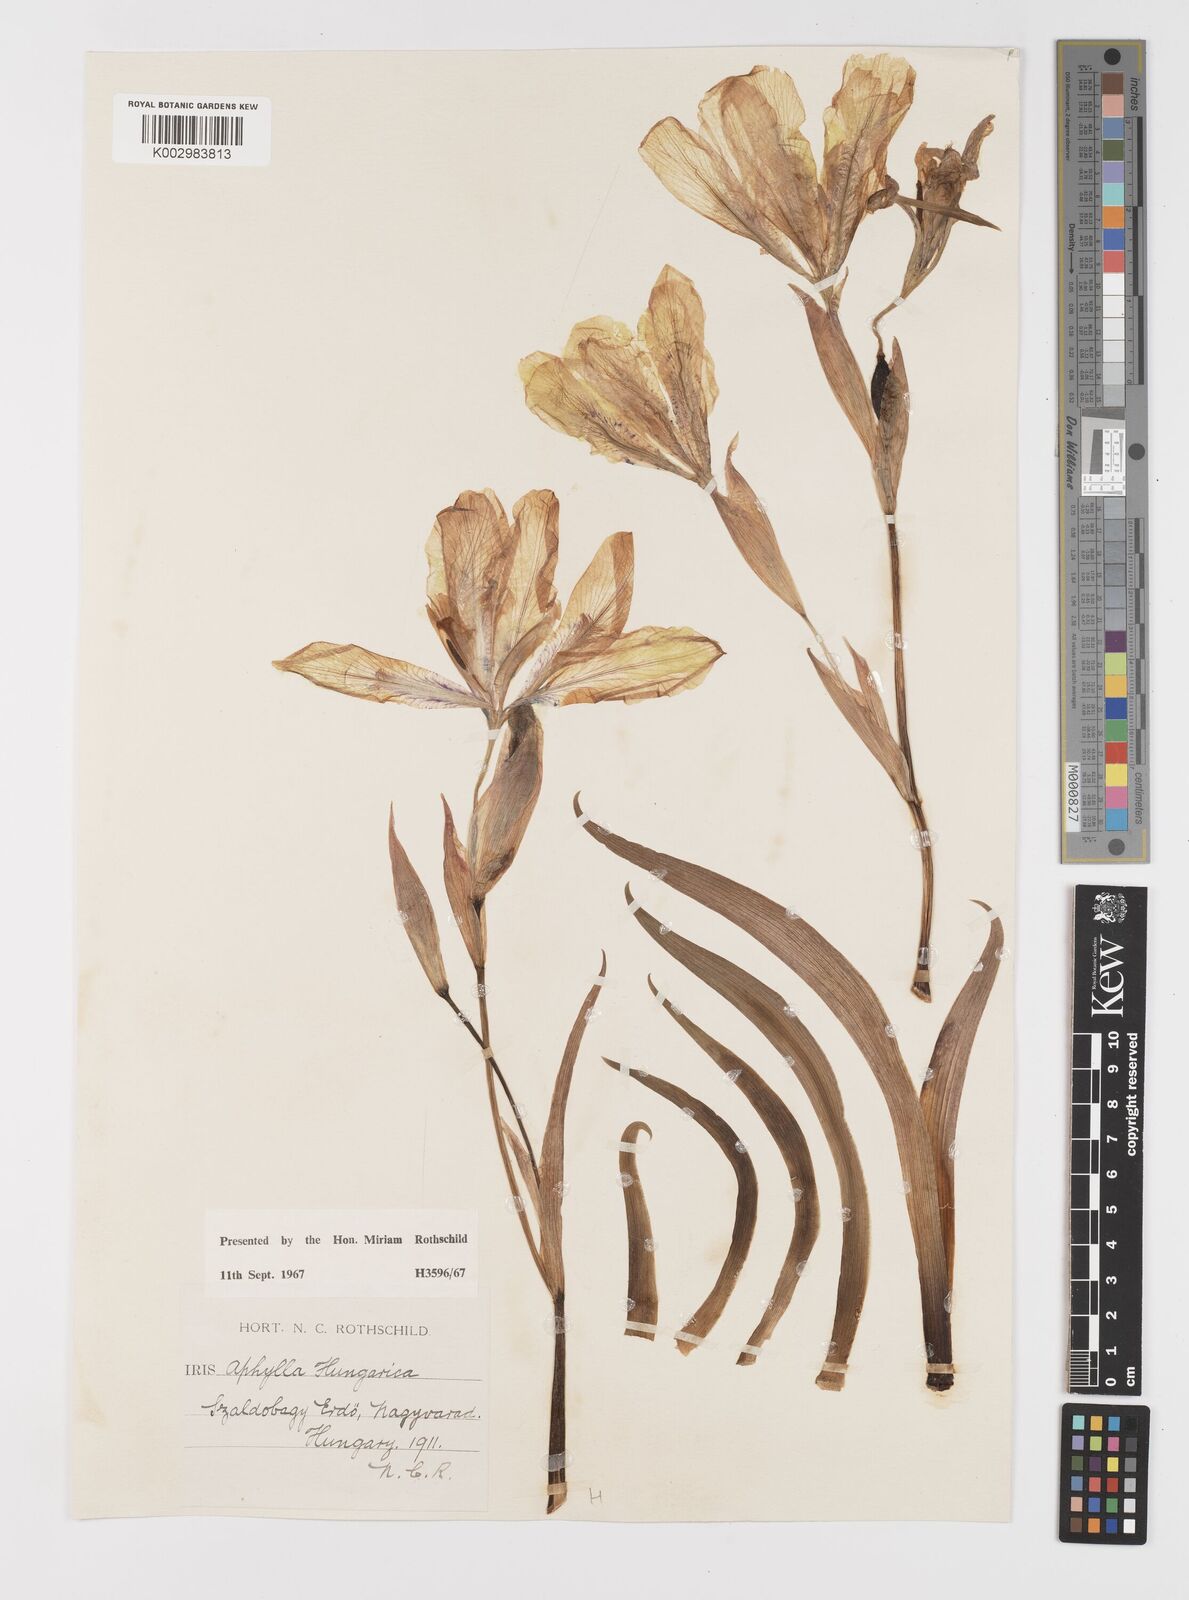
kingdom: Plantae
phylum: Tracheophyta
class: Liliopsida
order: Asparagales
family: Iridaceae
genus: Iris
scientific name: Iris aphylla
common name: Stool iris
